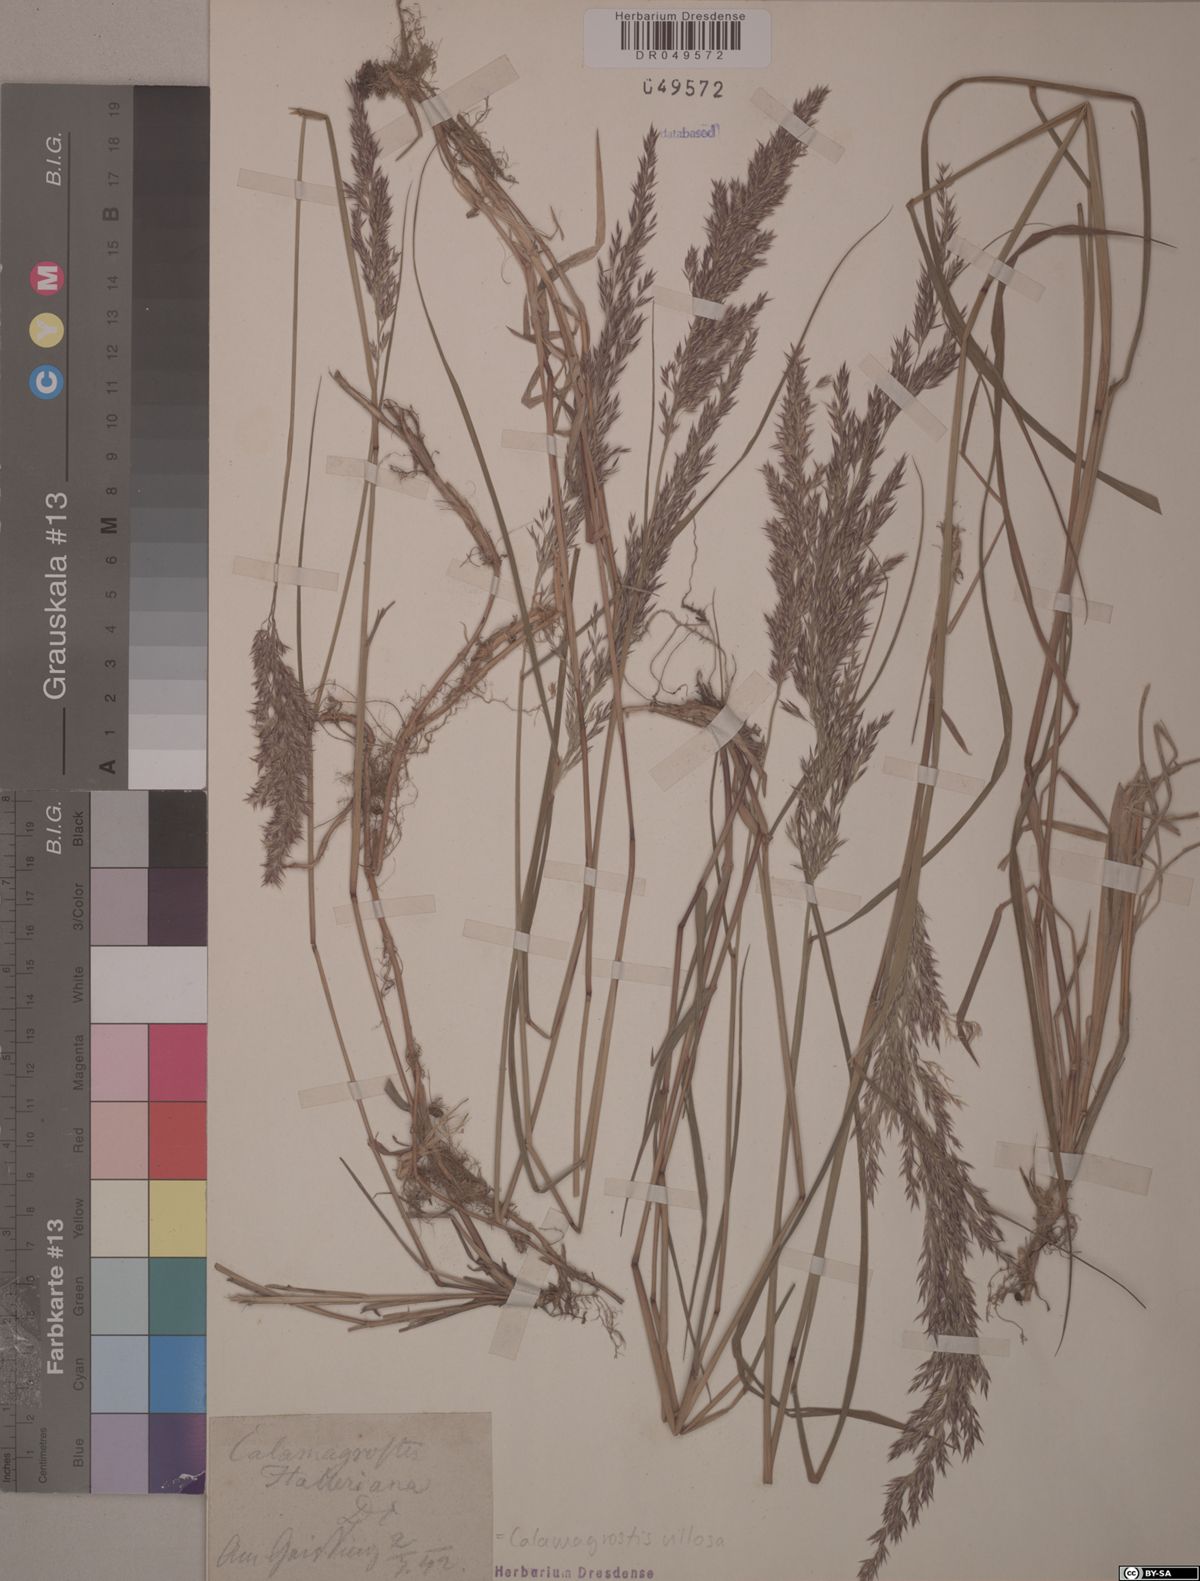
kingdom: Plantae
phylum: Tracheophyta
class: Liliopsida
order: Poales
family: Poaceae
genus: Calamagrostis
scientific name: Calamagrostis villosa
